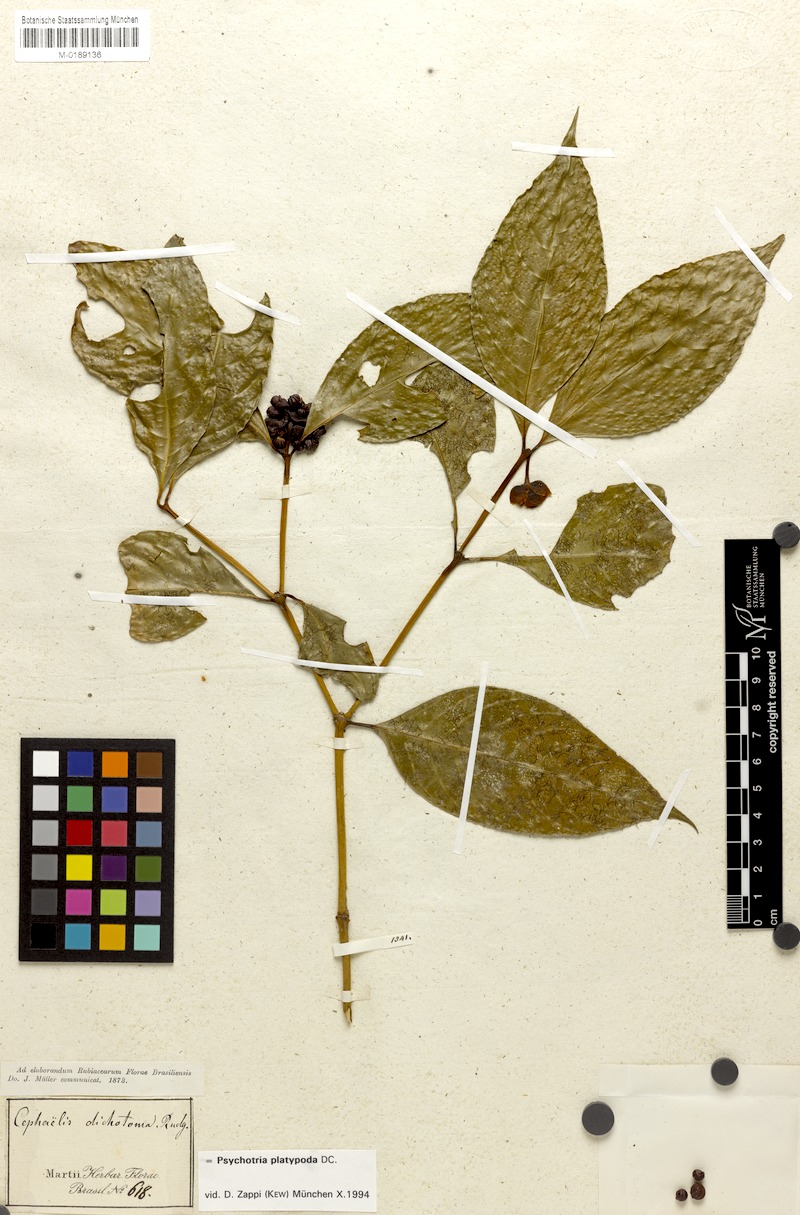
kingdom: Plantae
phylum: Tracheophyta
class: Magnoliopsida
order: Gentianales
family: Rubiaceae
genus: Palicourea
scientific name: Palicourea dichotoma
